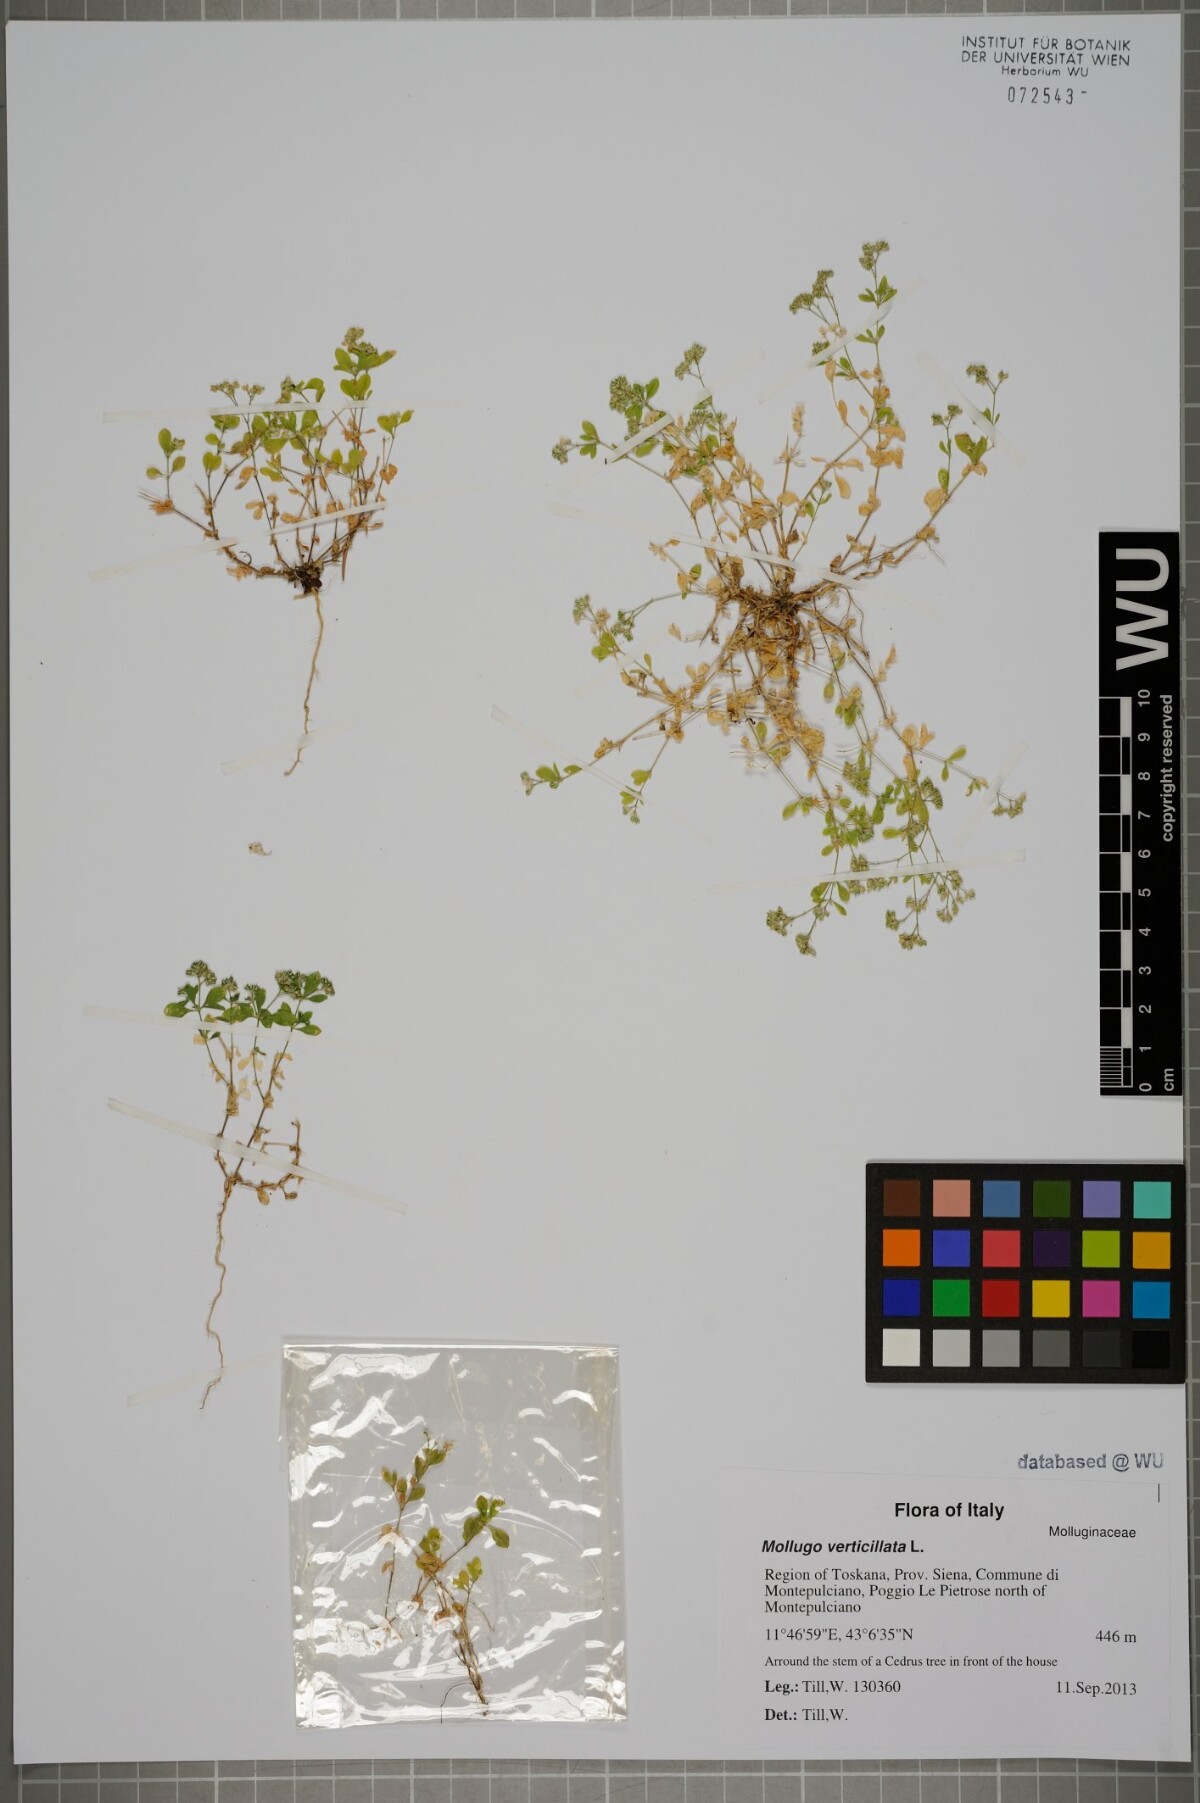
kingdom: Plantae
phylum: Tracheophyta
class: Magnoliopsida
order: Caryophyllales
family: Molluginaceae
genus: Mollugo
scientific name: Mollugo verticillata
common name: Green carpetweed
